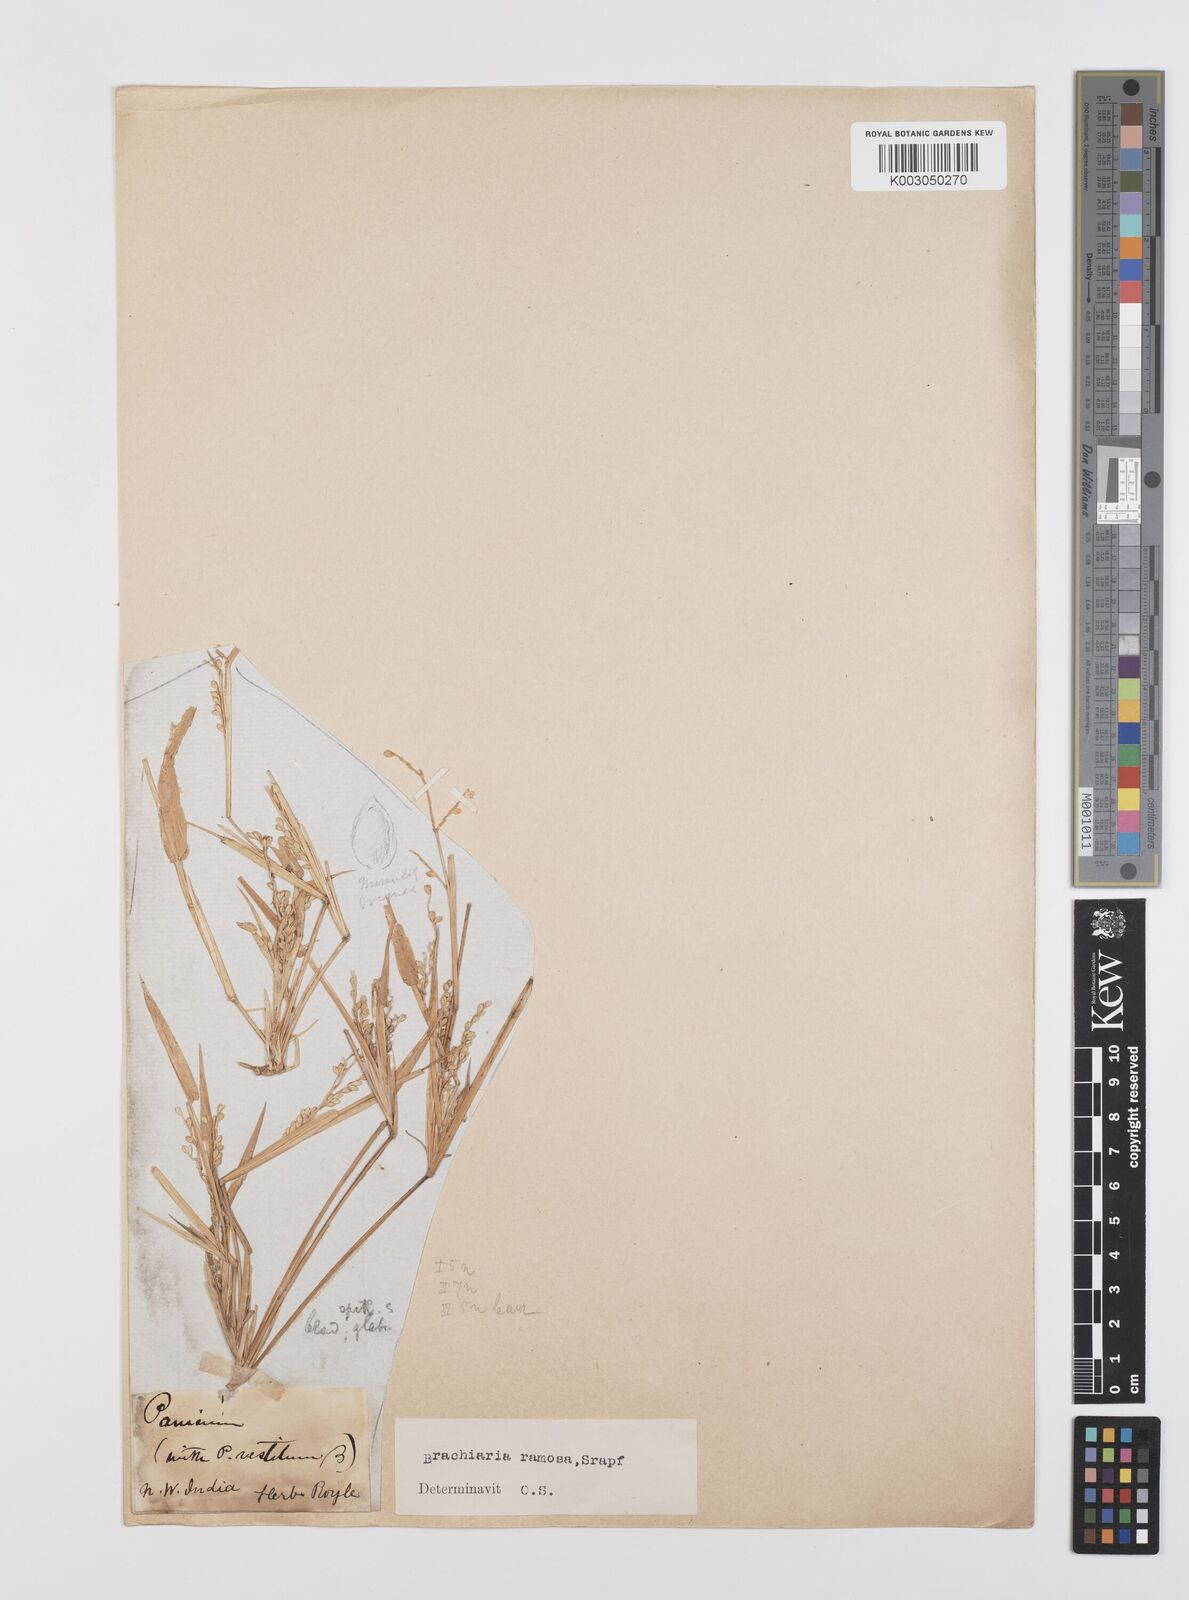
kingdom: Plantae
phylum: Tracheophyta
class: Liliopsida
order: Poales
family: Poaceae
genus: Urochloa
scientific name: Urochloa ramosa
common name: Browntop millet
